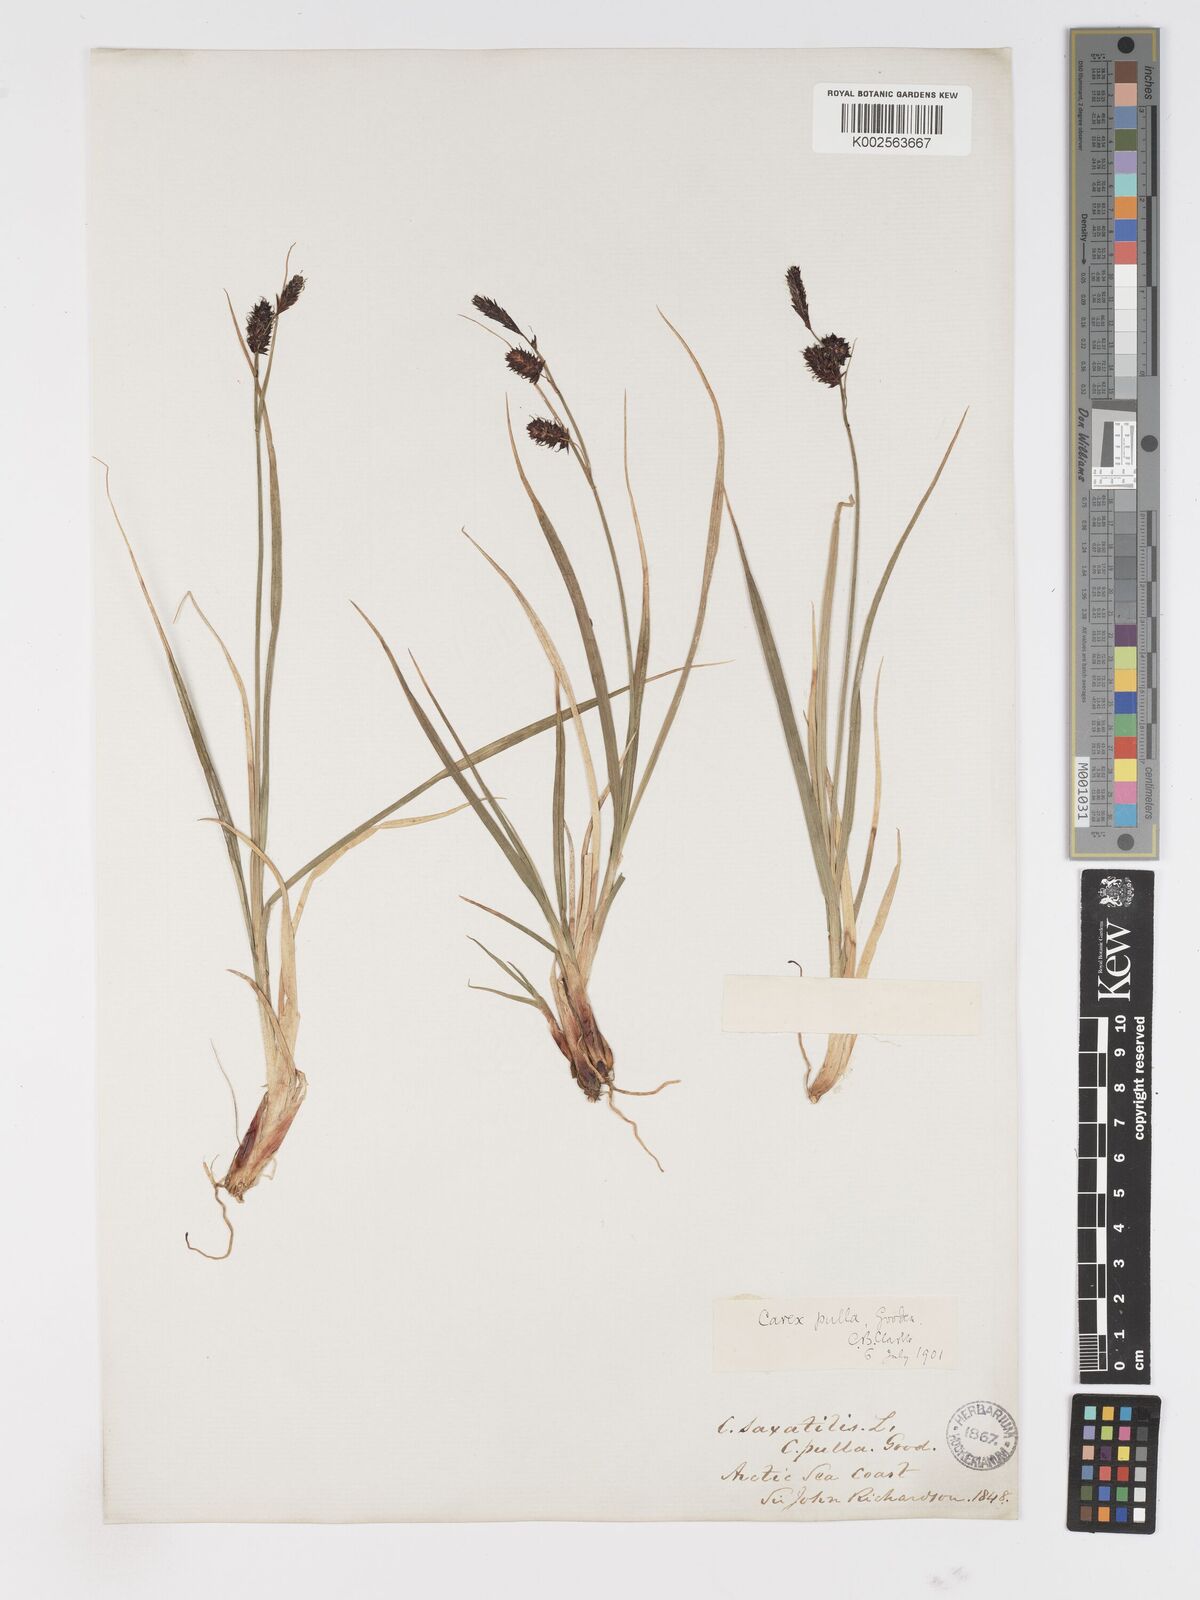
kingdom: Plantae
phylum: Tracheophyta
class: Liliopsida
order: Poales
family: Cyperaceae
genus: Carex
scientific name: Carex saxatilis
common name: Russet sedge
